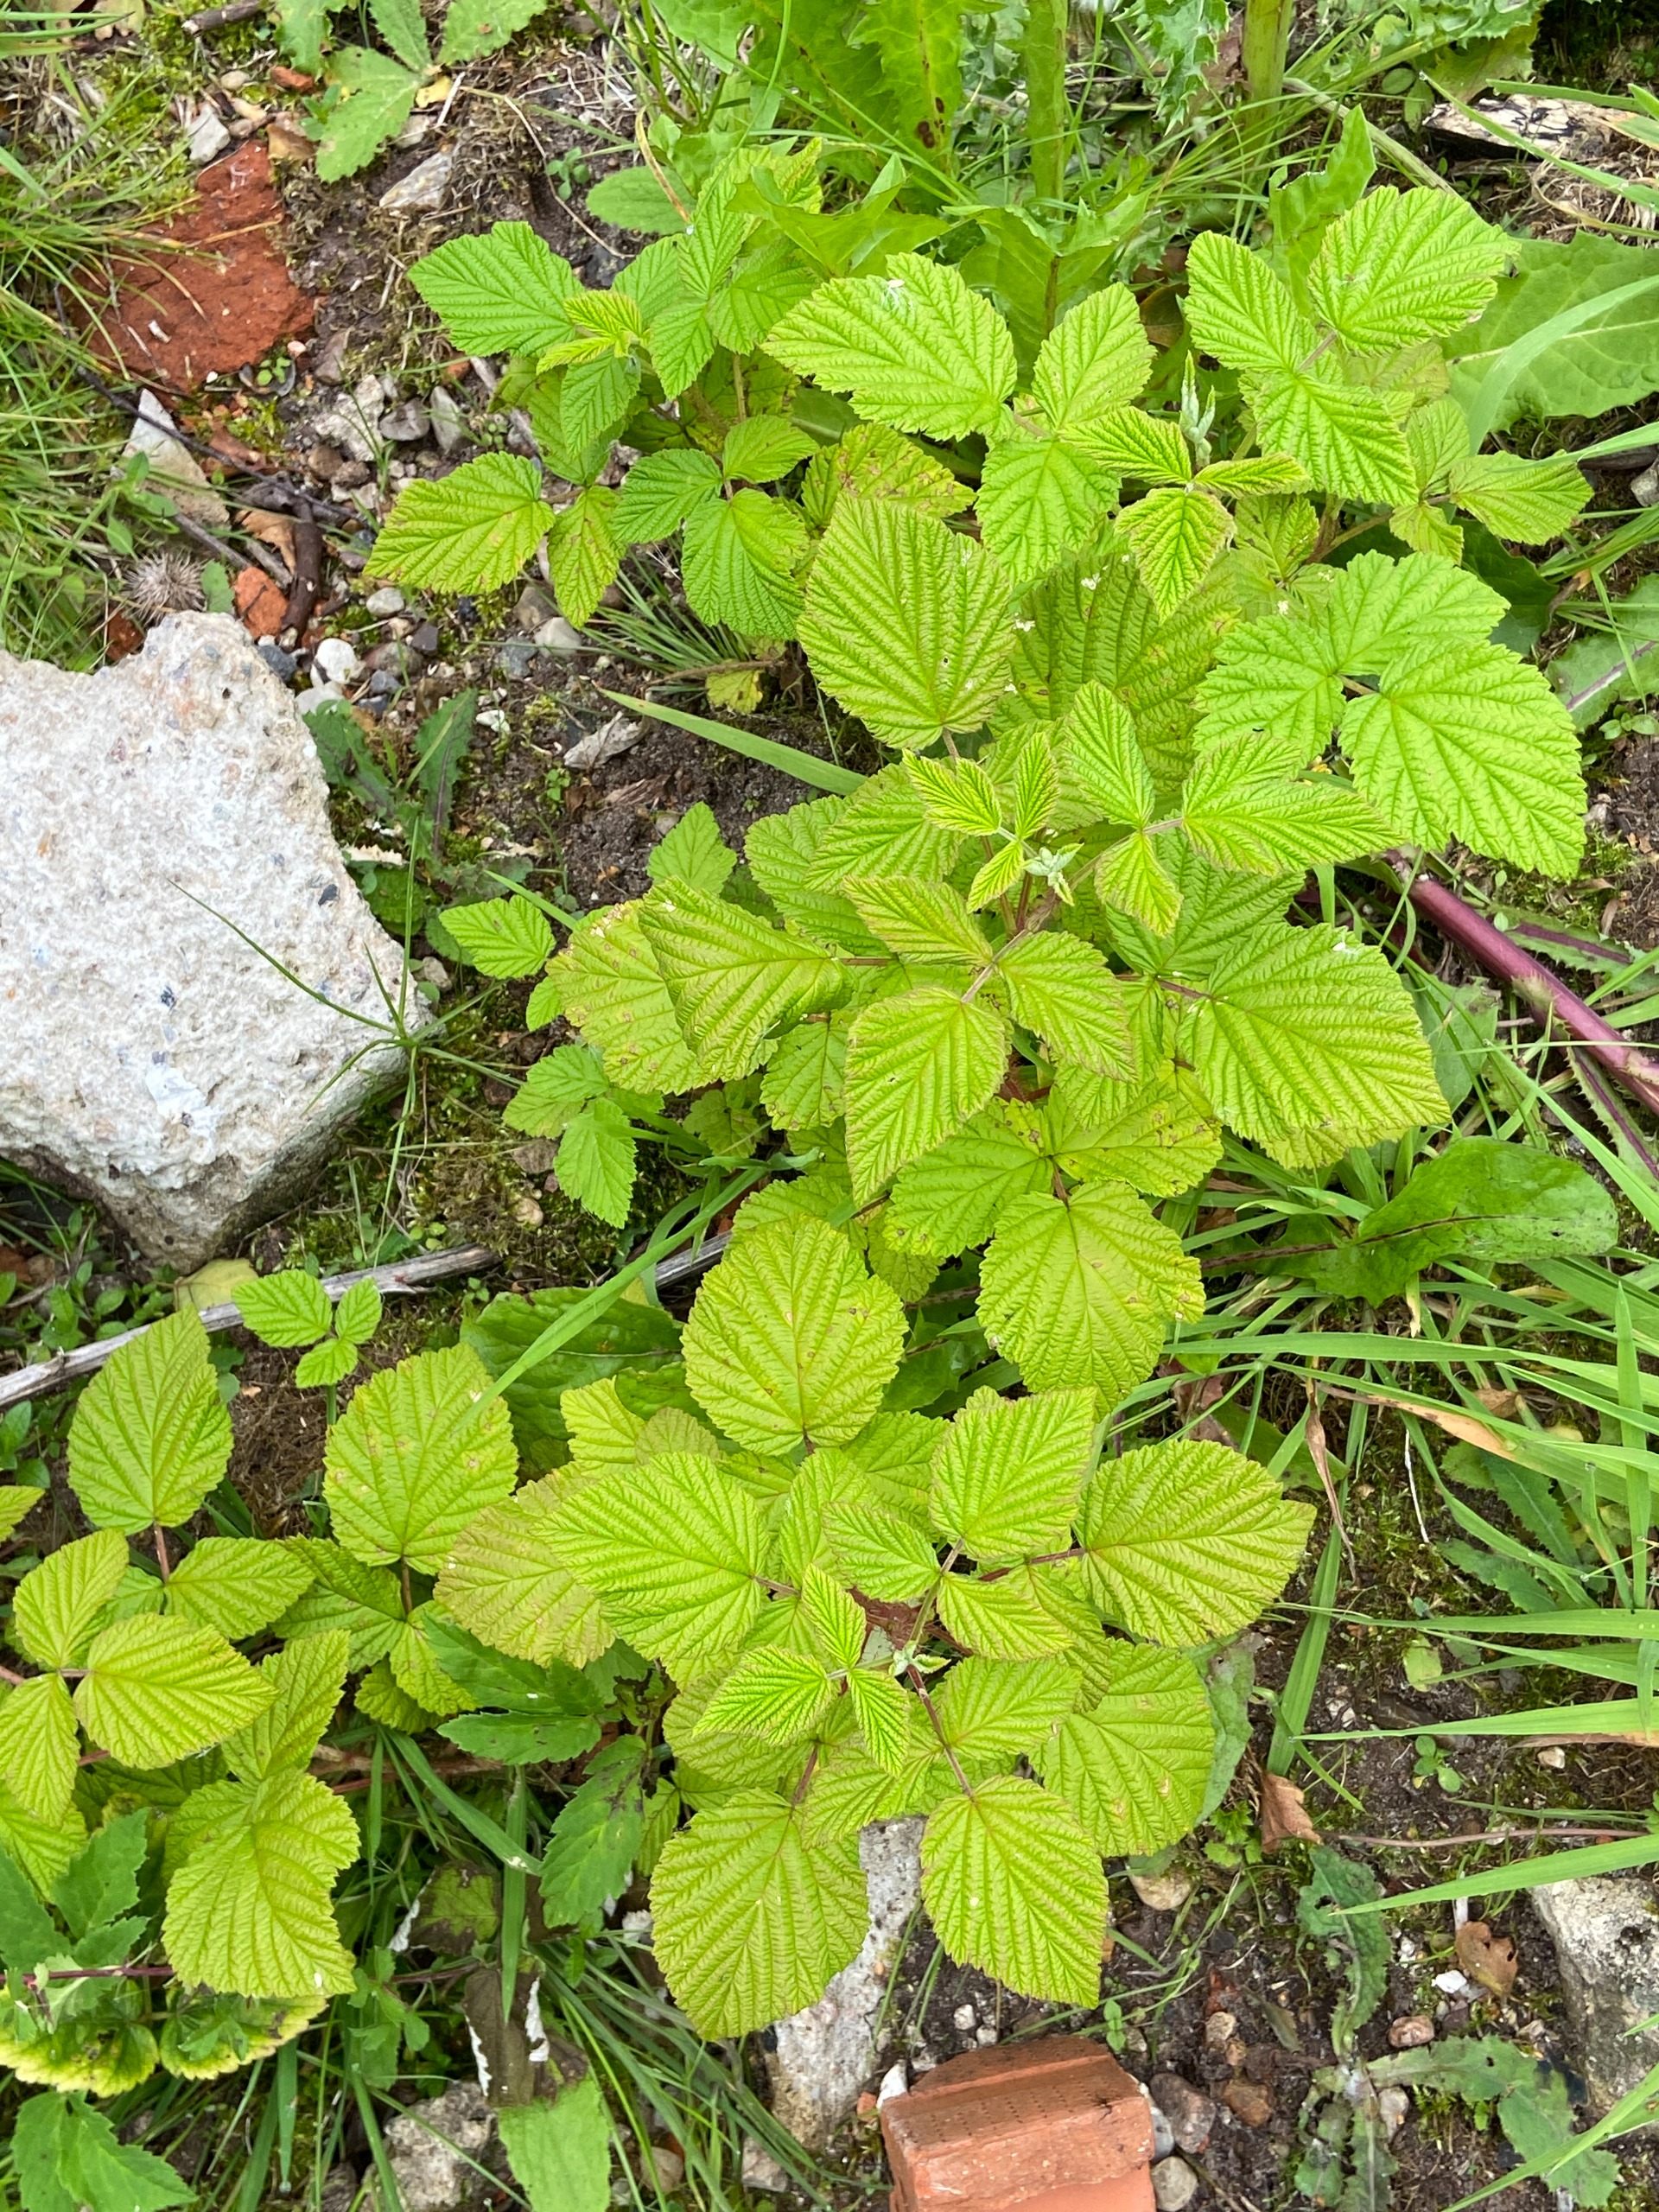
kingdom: Plantae
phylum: Tracheophyta
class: Magnoliopsida
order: Rosales
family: Rosaceae
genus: Rubus
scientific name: Rubus idaeus
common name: Hindbær
